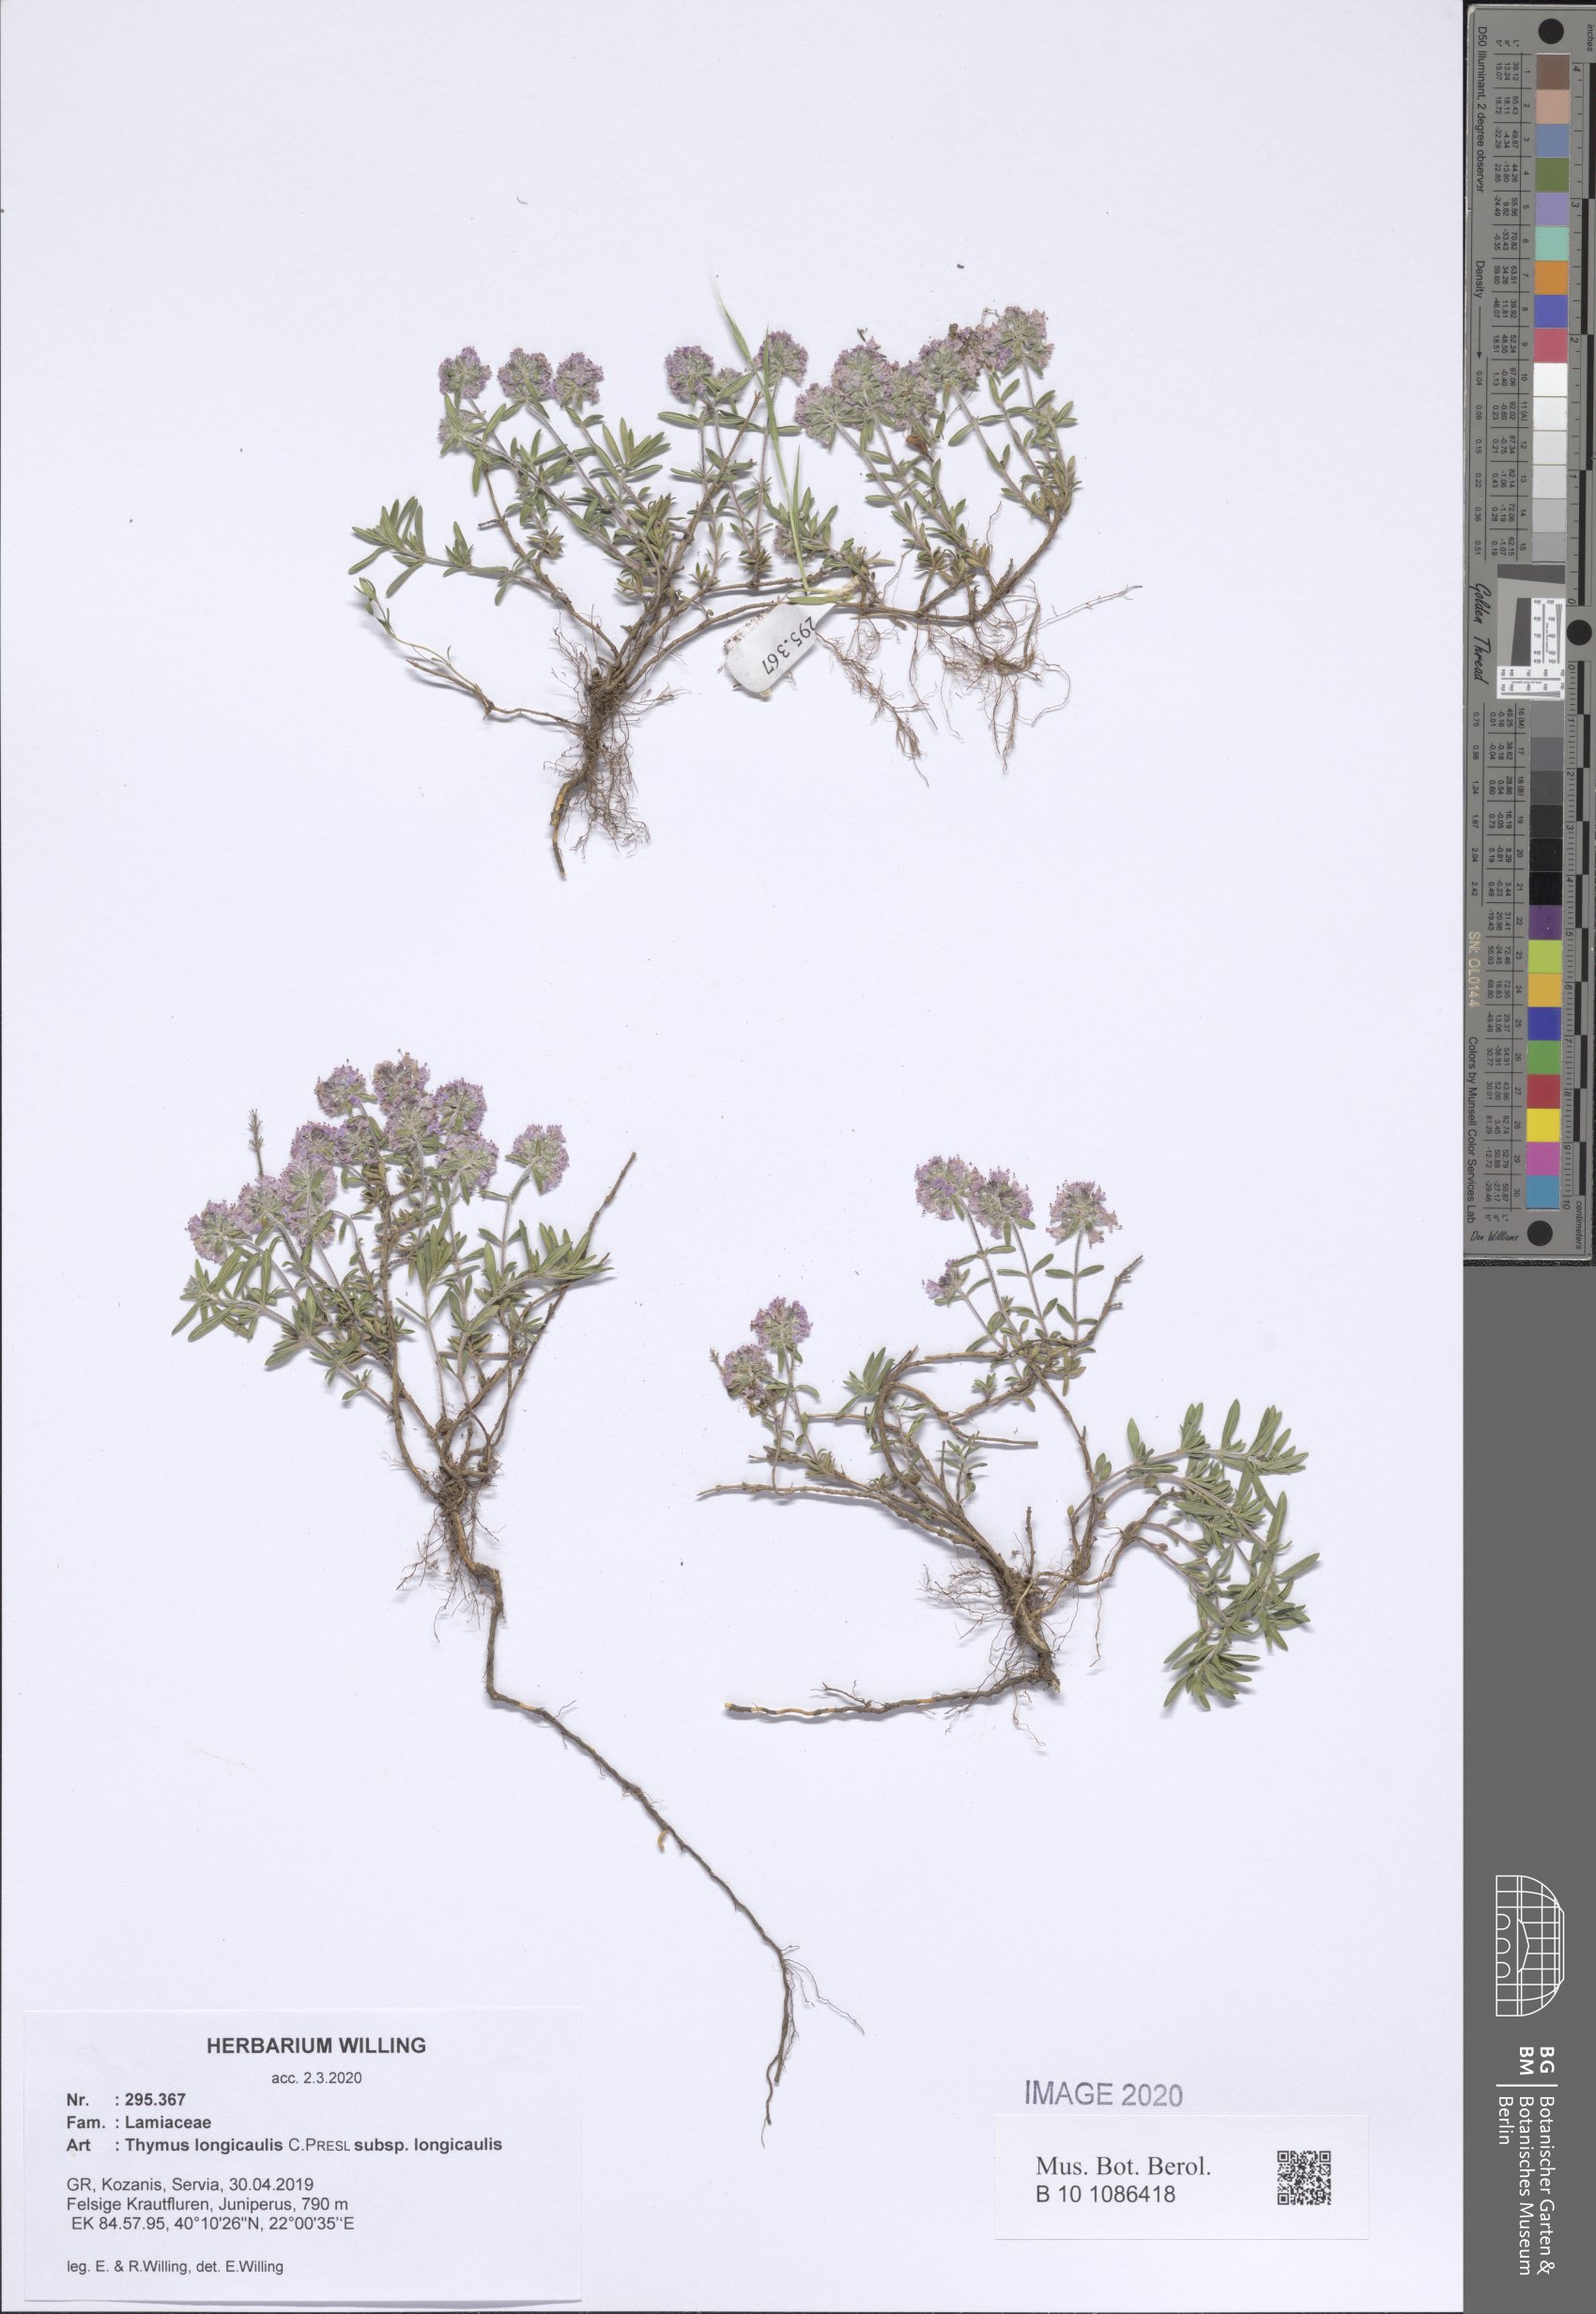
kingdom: Plantae
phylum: Tracheophyta
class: Magnoliopsida
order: Lamiales
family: Lamiaceae
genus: Thymus
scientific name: Thymus longicaulis
